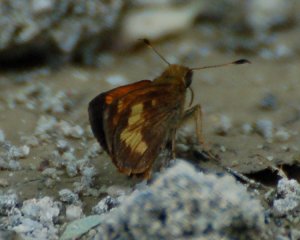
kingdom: Animalia
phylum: Arthropoda
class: Insecta
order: Lepidoptera
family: Hesperiidae
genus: Lon
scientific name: Lon hobomok
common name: Hobomok Skipper
